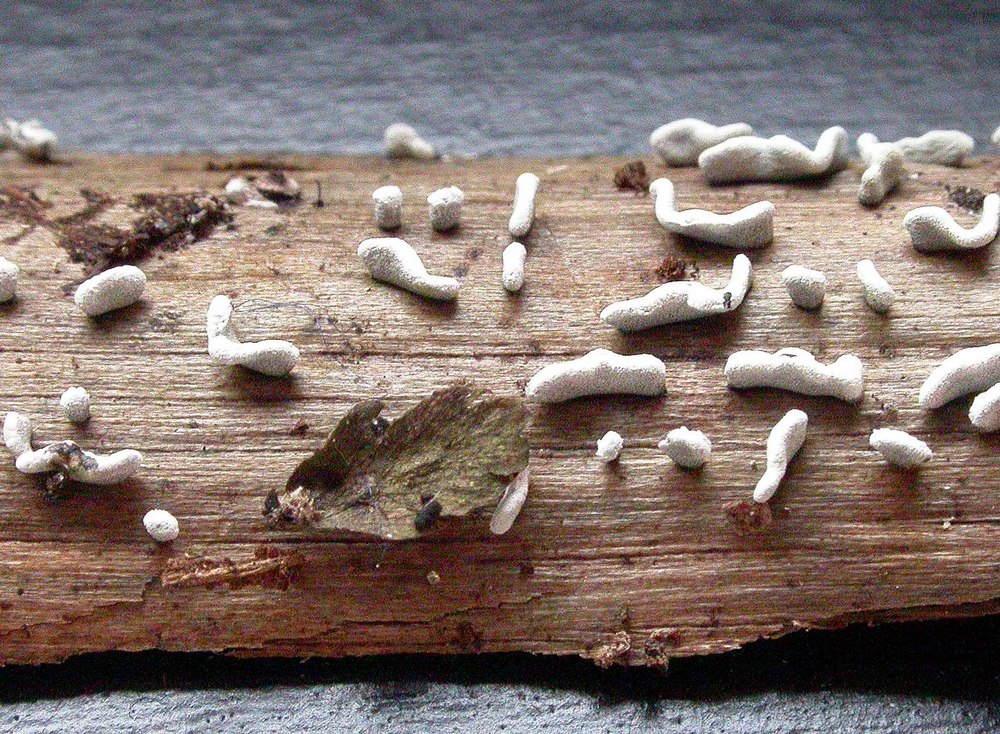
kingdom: Protozoa
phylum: Mycetozoa
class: Myxomycetes
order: Physarales
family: Physaraceae
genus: Physarum
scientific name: Physarum bivalve
